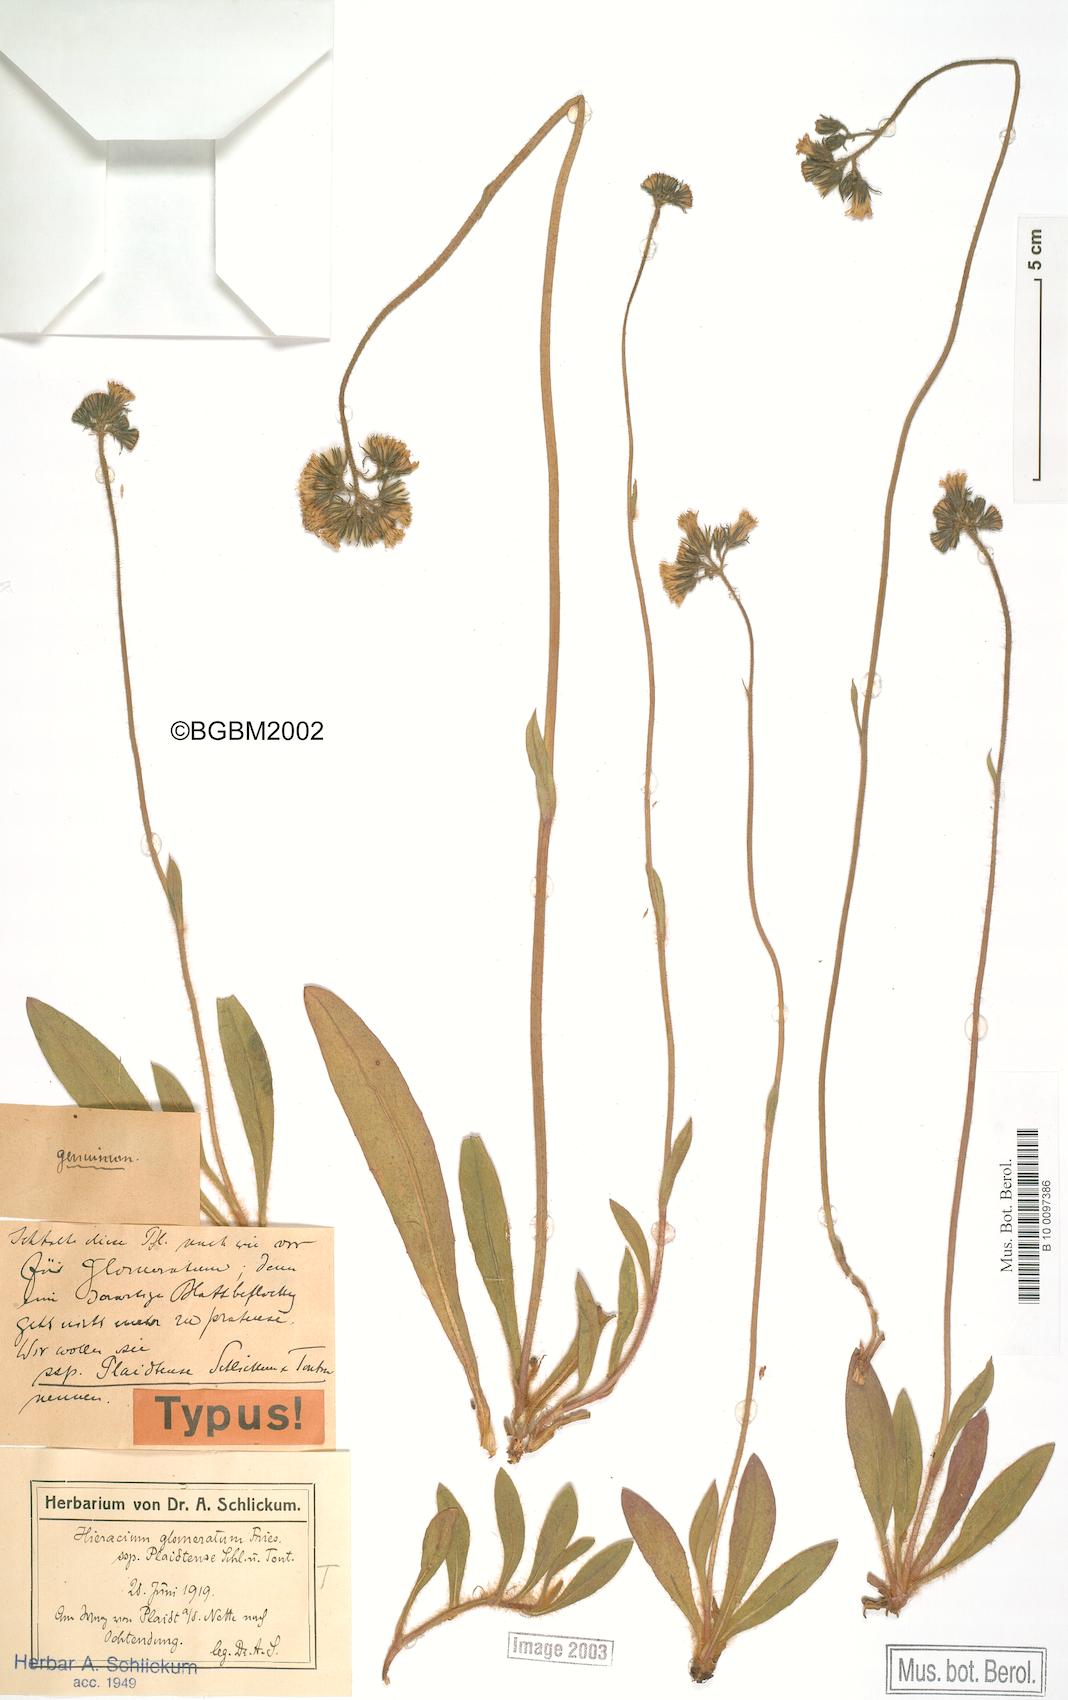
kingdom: Plantae
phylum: Tracheophyta
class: Magnoliopsida
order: Asterales
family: Asteraceae
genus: Hieracium
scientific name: Hieracium glomeratum
